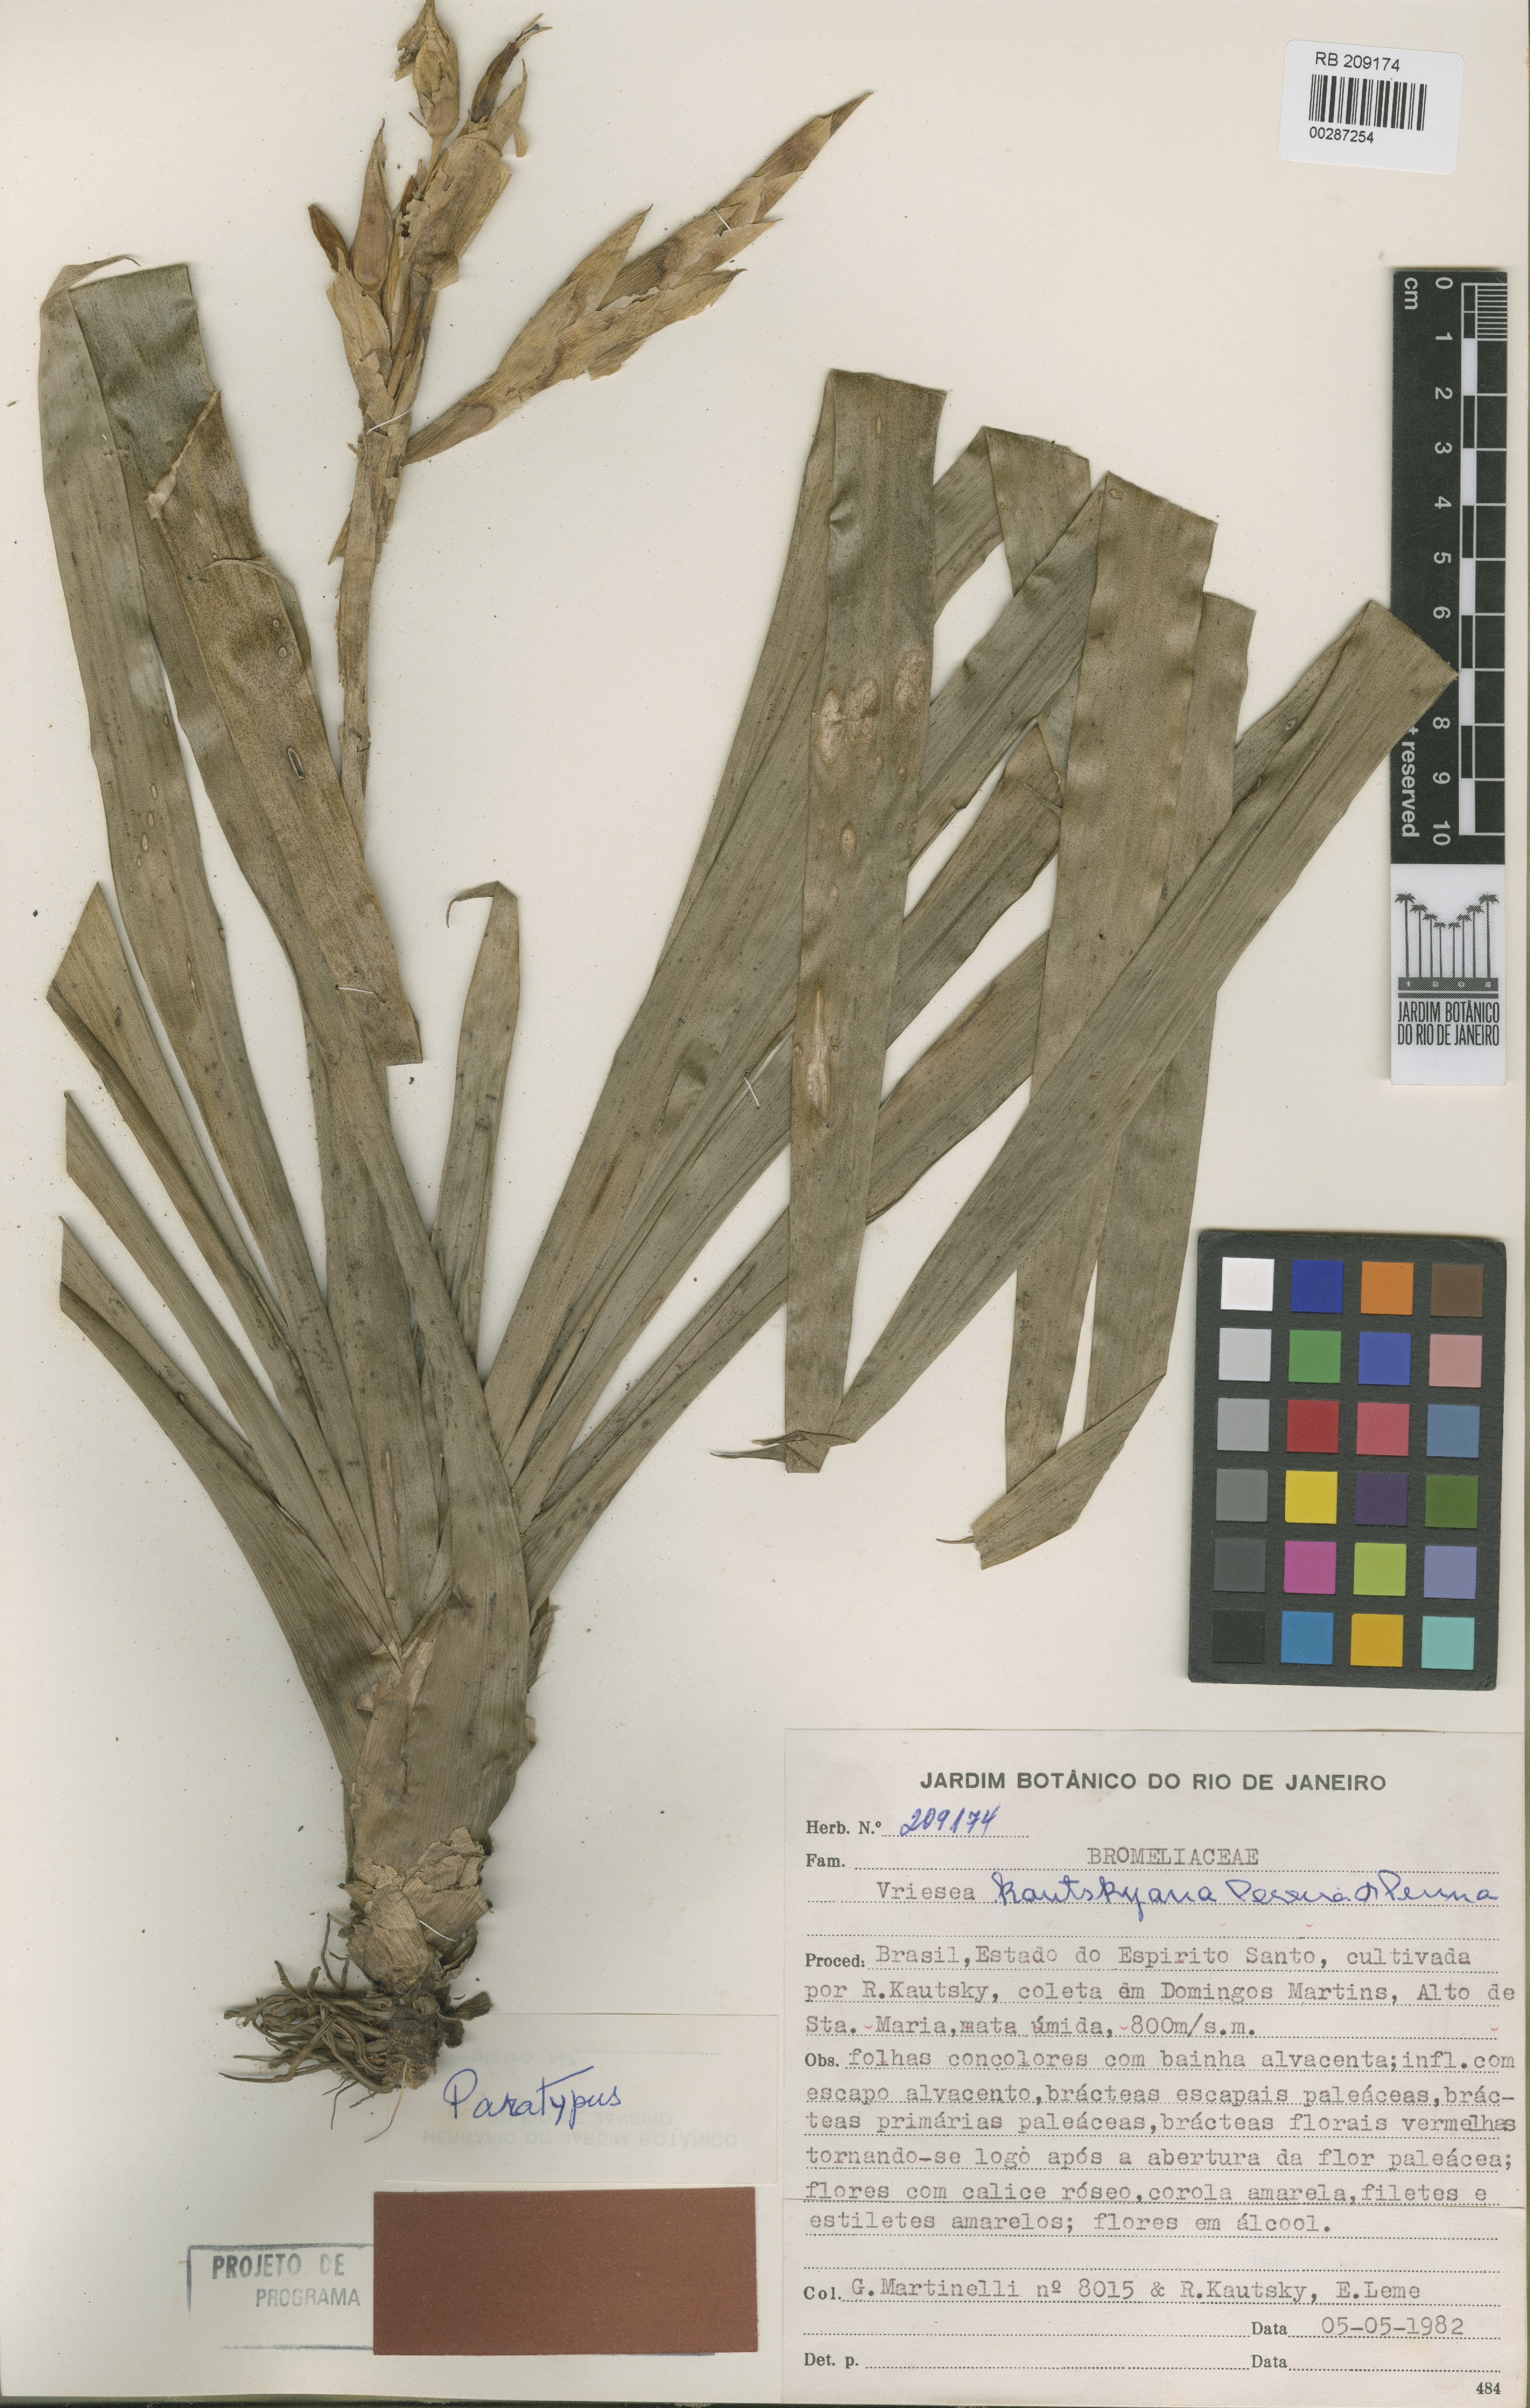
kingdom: Plantae
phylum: Tracheophyta
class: Liliopsida
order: Poales
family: Bromeliaceae
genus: Vriesea
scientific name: Vriesea kautskyana
